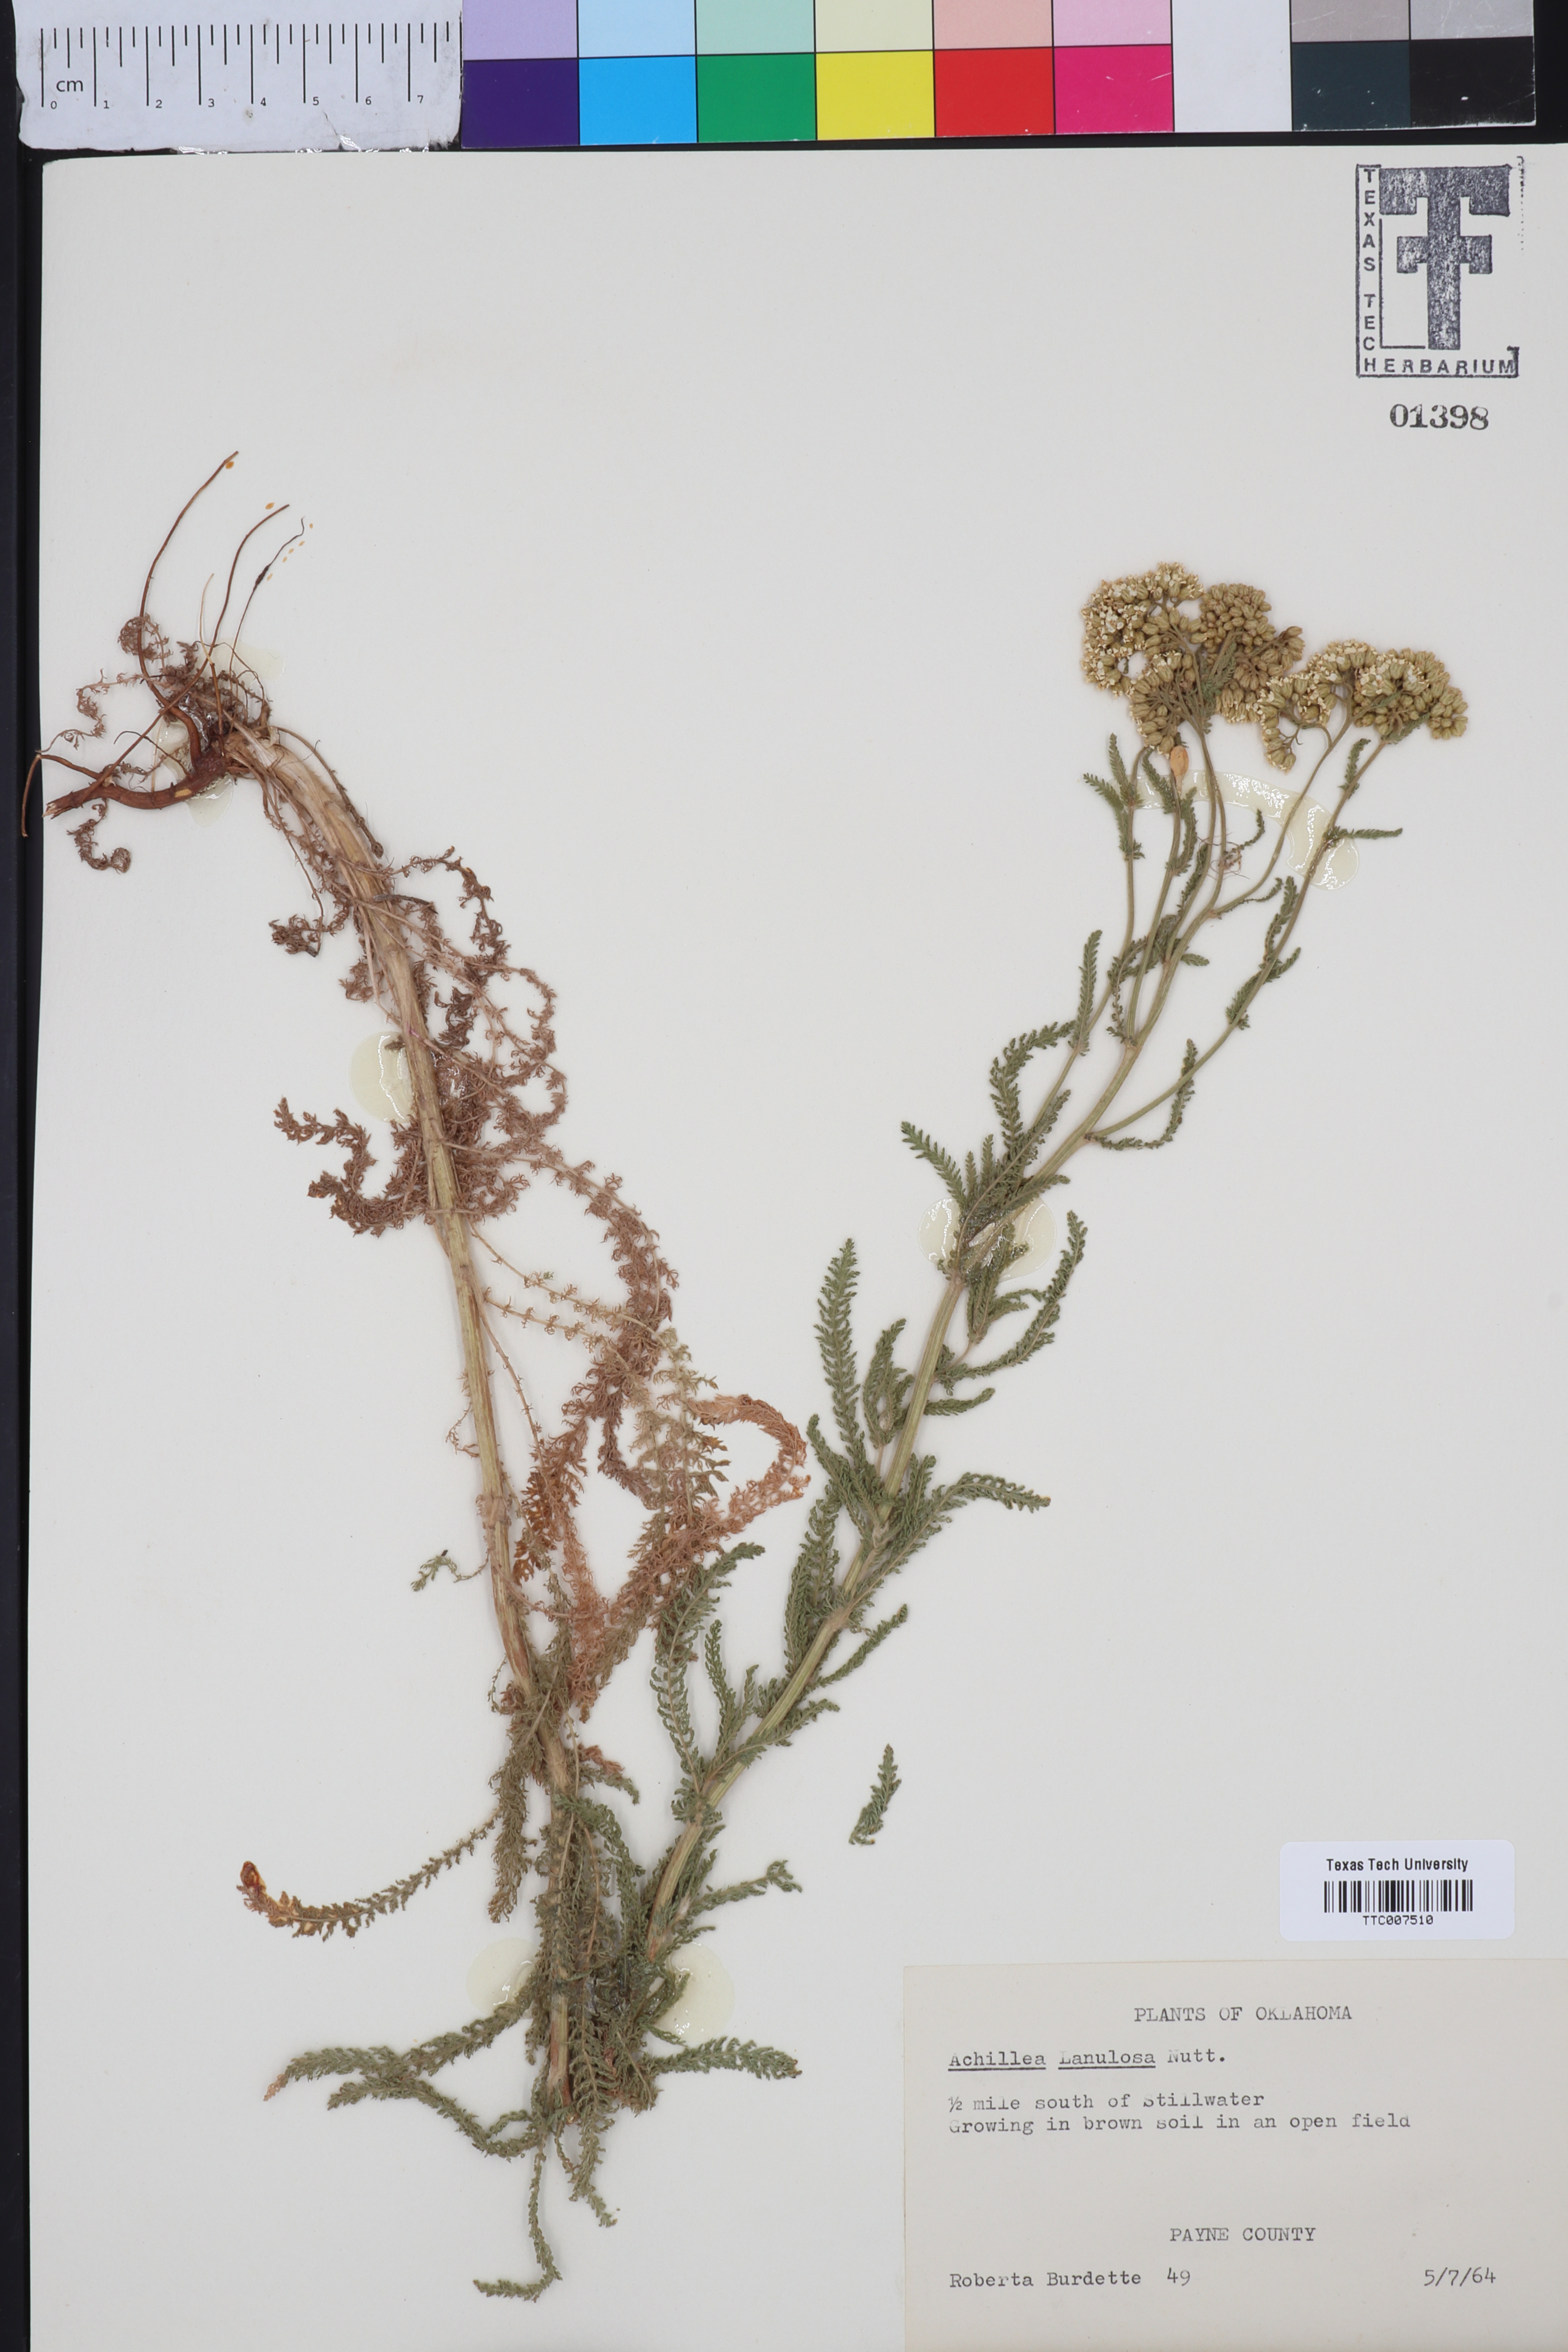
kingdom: Plantae
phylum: Tracheophyta
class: Magnoliopsida
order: Asterales
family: Asteraceae
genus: Achillea
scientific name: Achillea millefolium
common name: Yarrow
